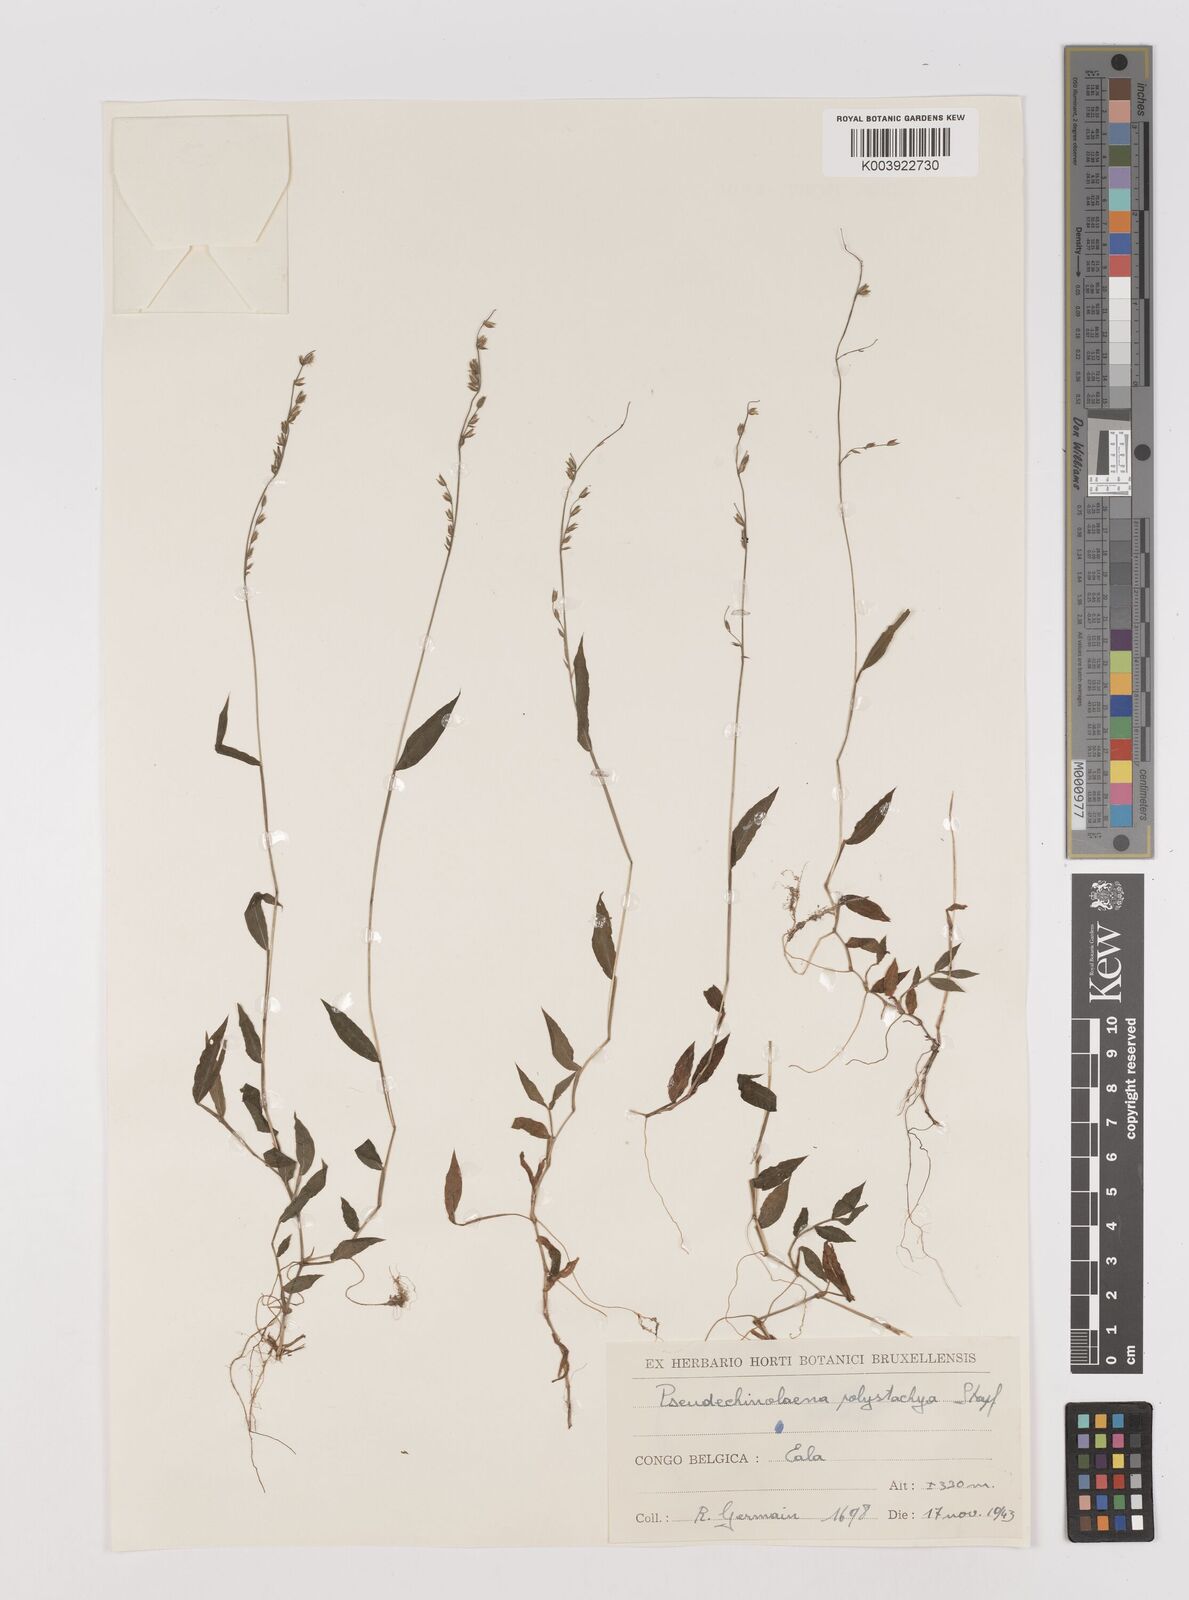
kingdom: Plantae
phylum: Tracheophyta
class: Liliopsida
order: Poales
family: Poaceae
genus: Pseudechinolaena
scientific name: Pseudechinolaena polystachya
